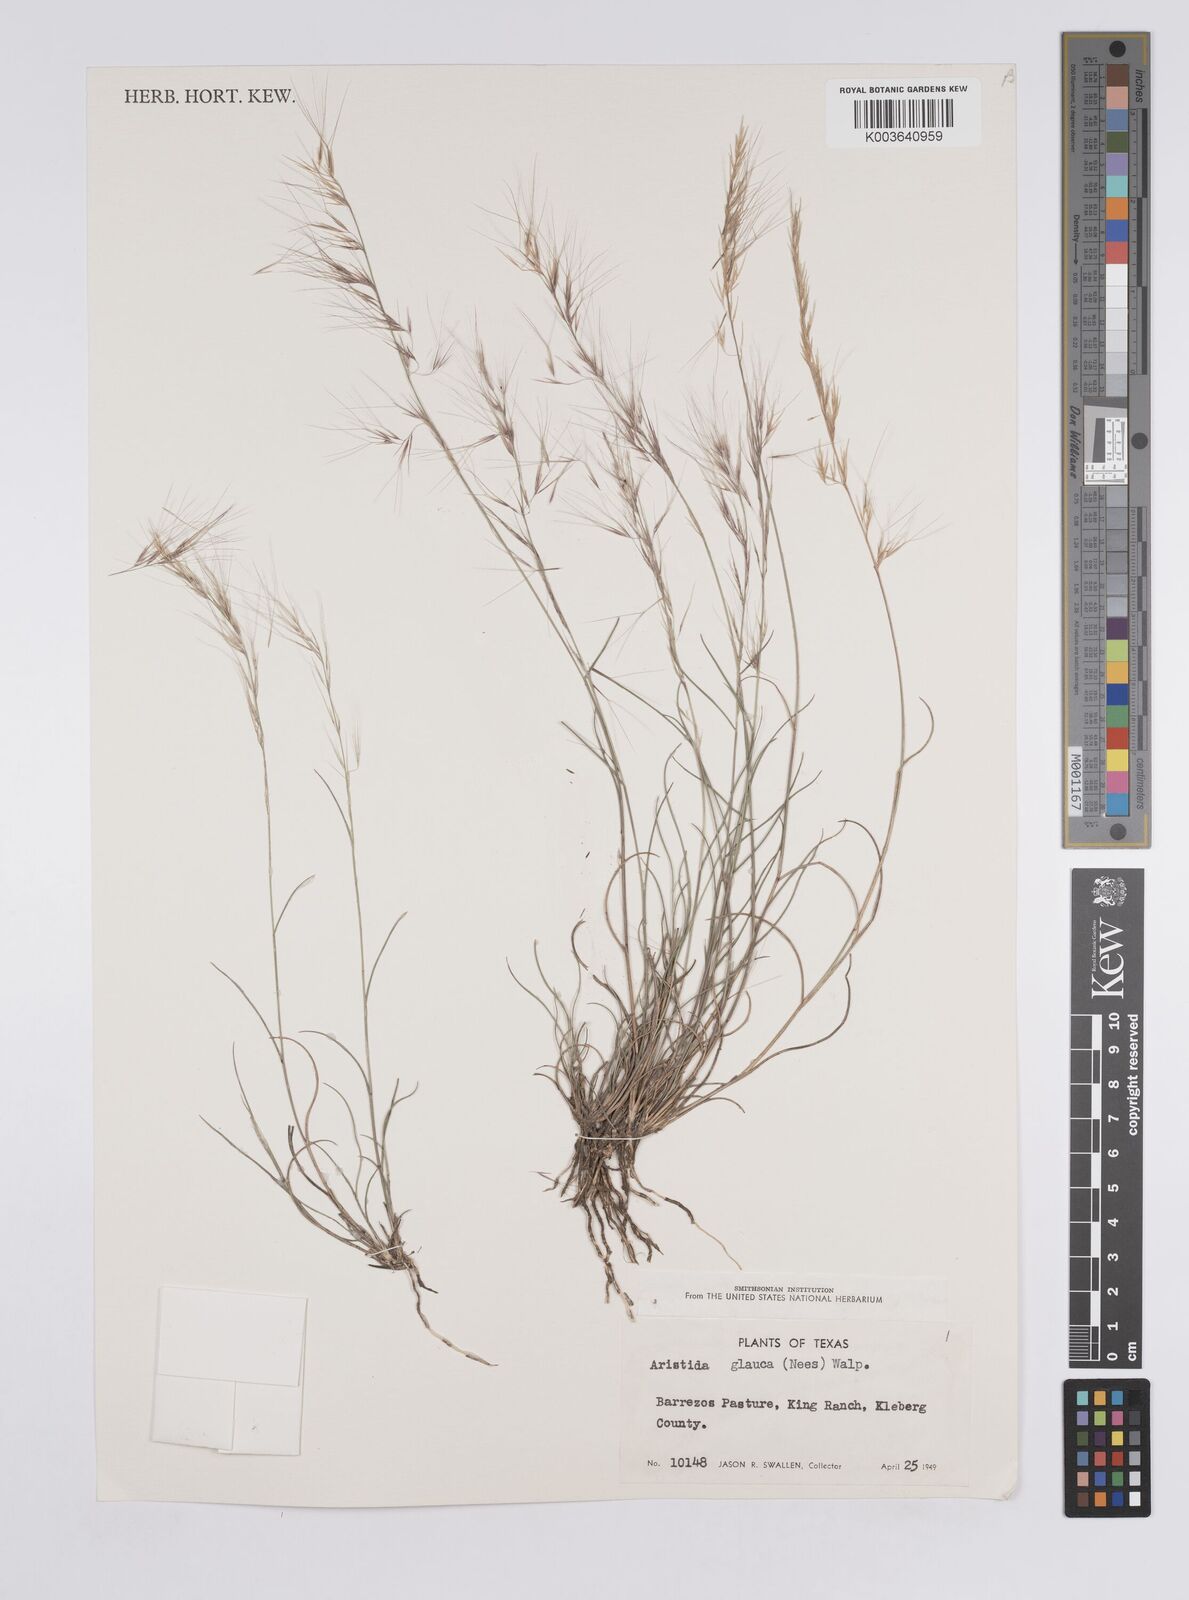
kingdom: Plantae
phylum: Tracheophyta
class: Liliopsida
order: Poales
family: Poaceae
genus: Aristida
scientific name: Aristida purpurea
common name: Purple threeawn
